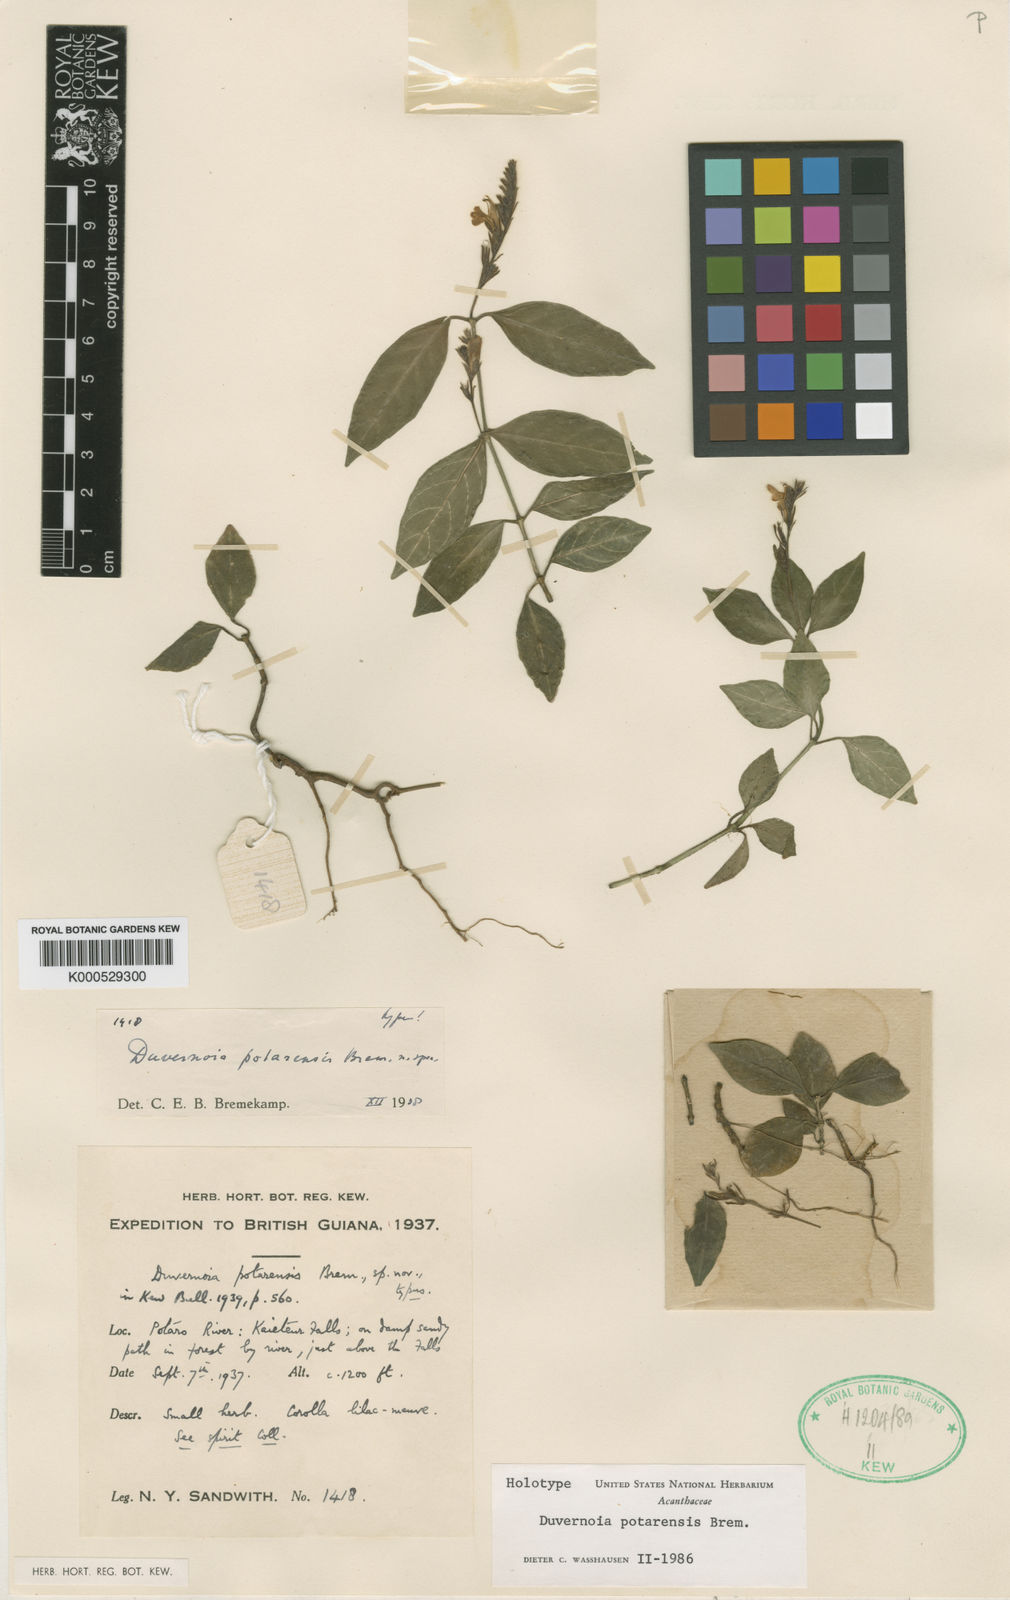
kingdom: Plantae
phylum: Tracheophyta
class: Magnoliopsida
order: Lamiales
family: Acanthaceae
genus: Justicia
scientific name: Justicia potarensis
